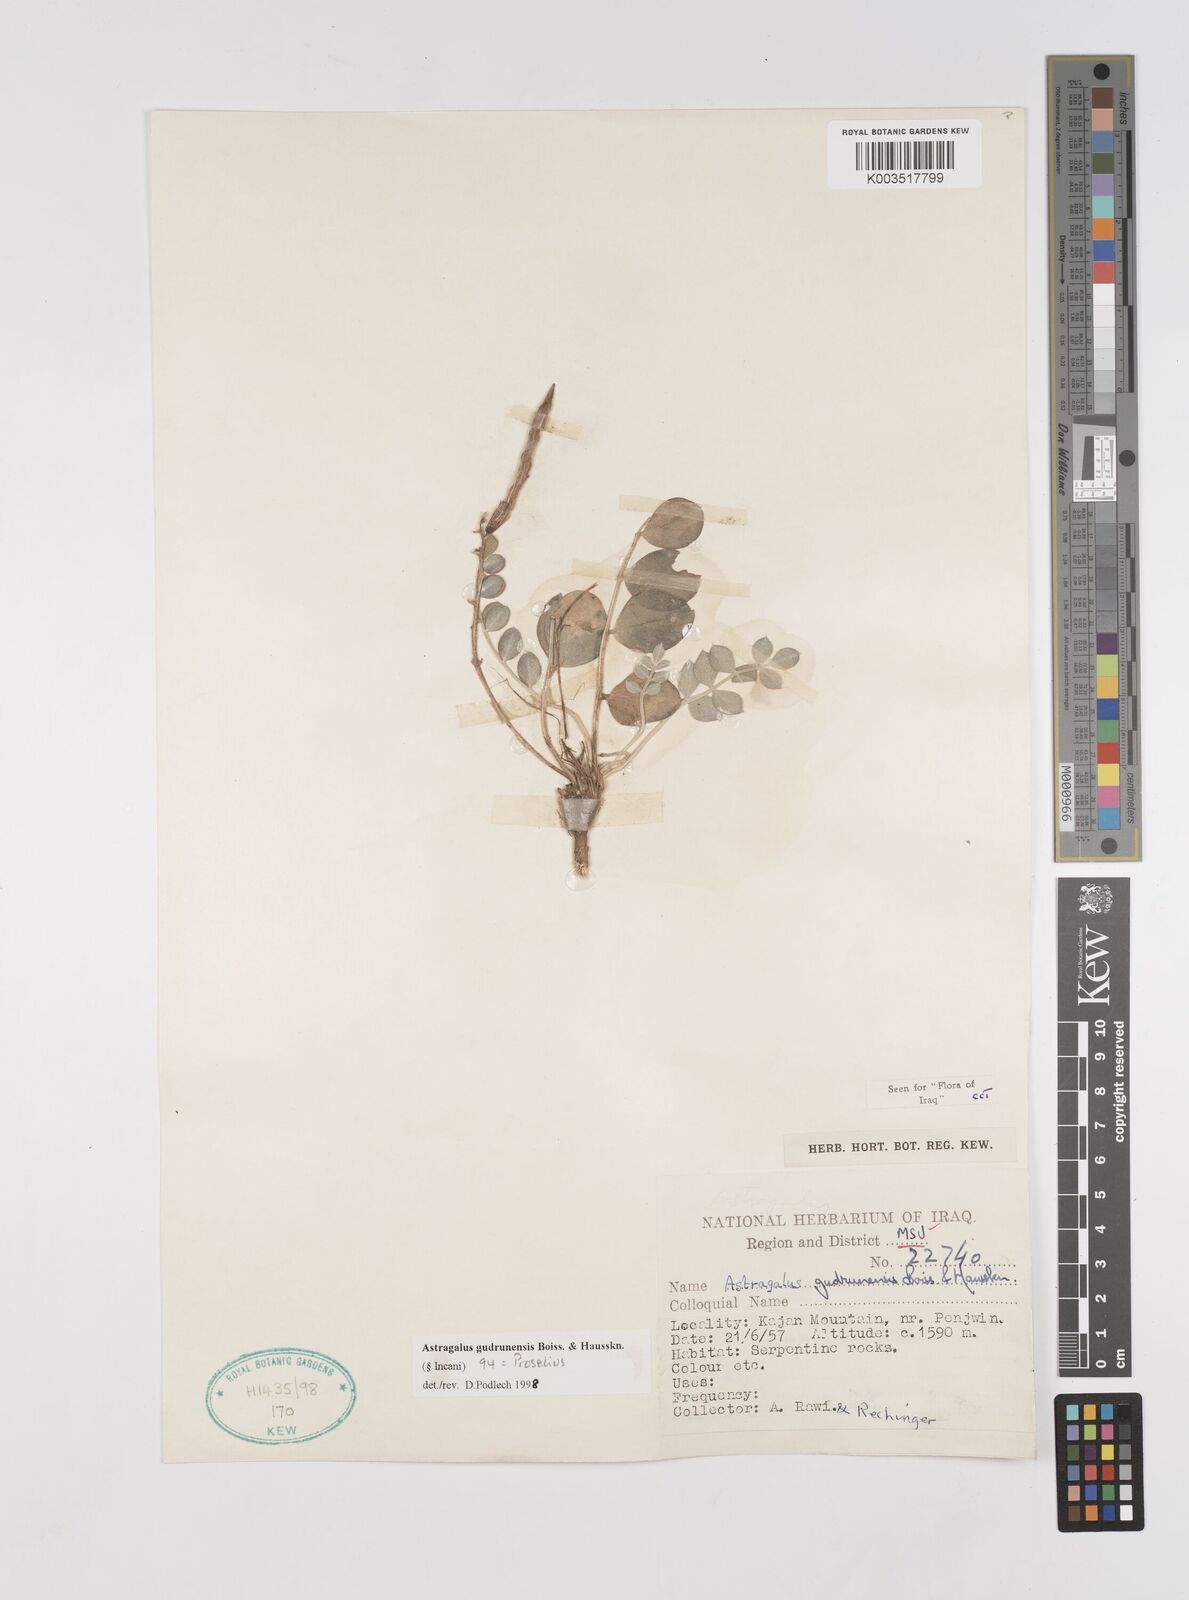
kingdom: Plantae
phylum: Tracheophyta
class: Magnoliopsida
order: Fabales
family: Fabaceae
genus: Astragalus
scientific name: Astragalus gudrunensis
